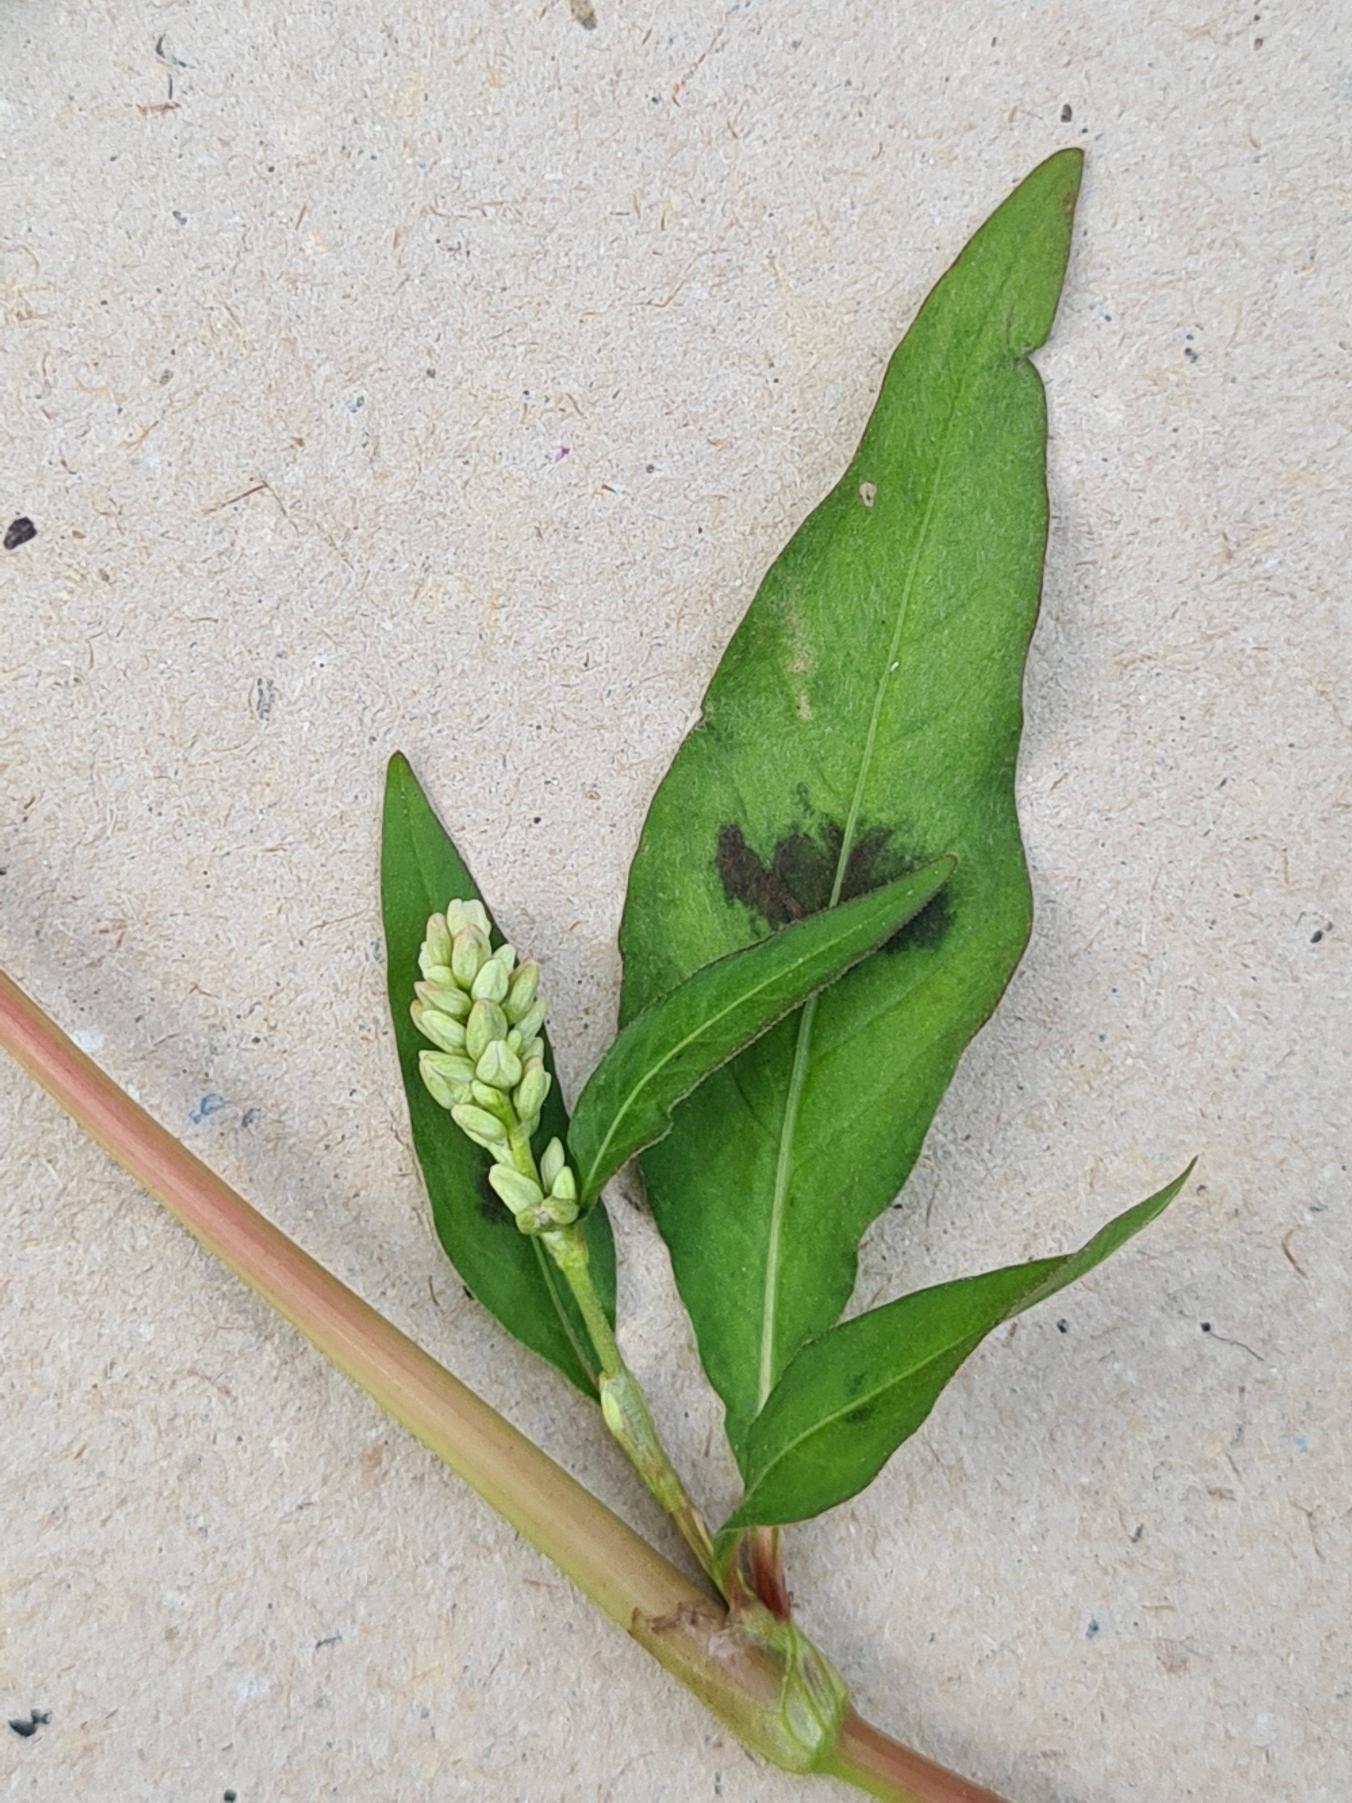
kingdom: Plantae
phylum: Tracheophyta
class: Magnoliopsida
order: Caryophyllales
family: Polygonaceae
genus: Persicaria
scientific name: Persicaria lapathifolia
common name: Bleg pileurt
